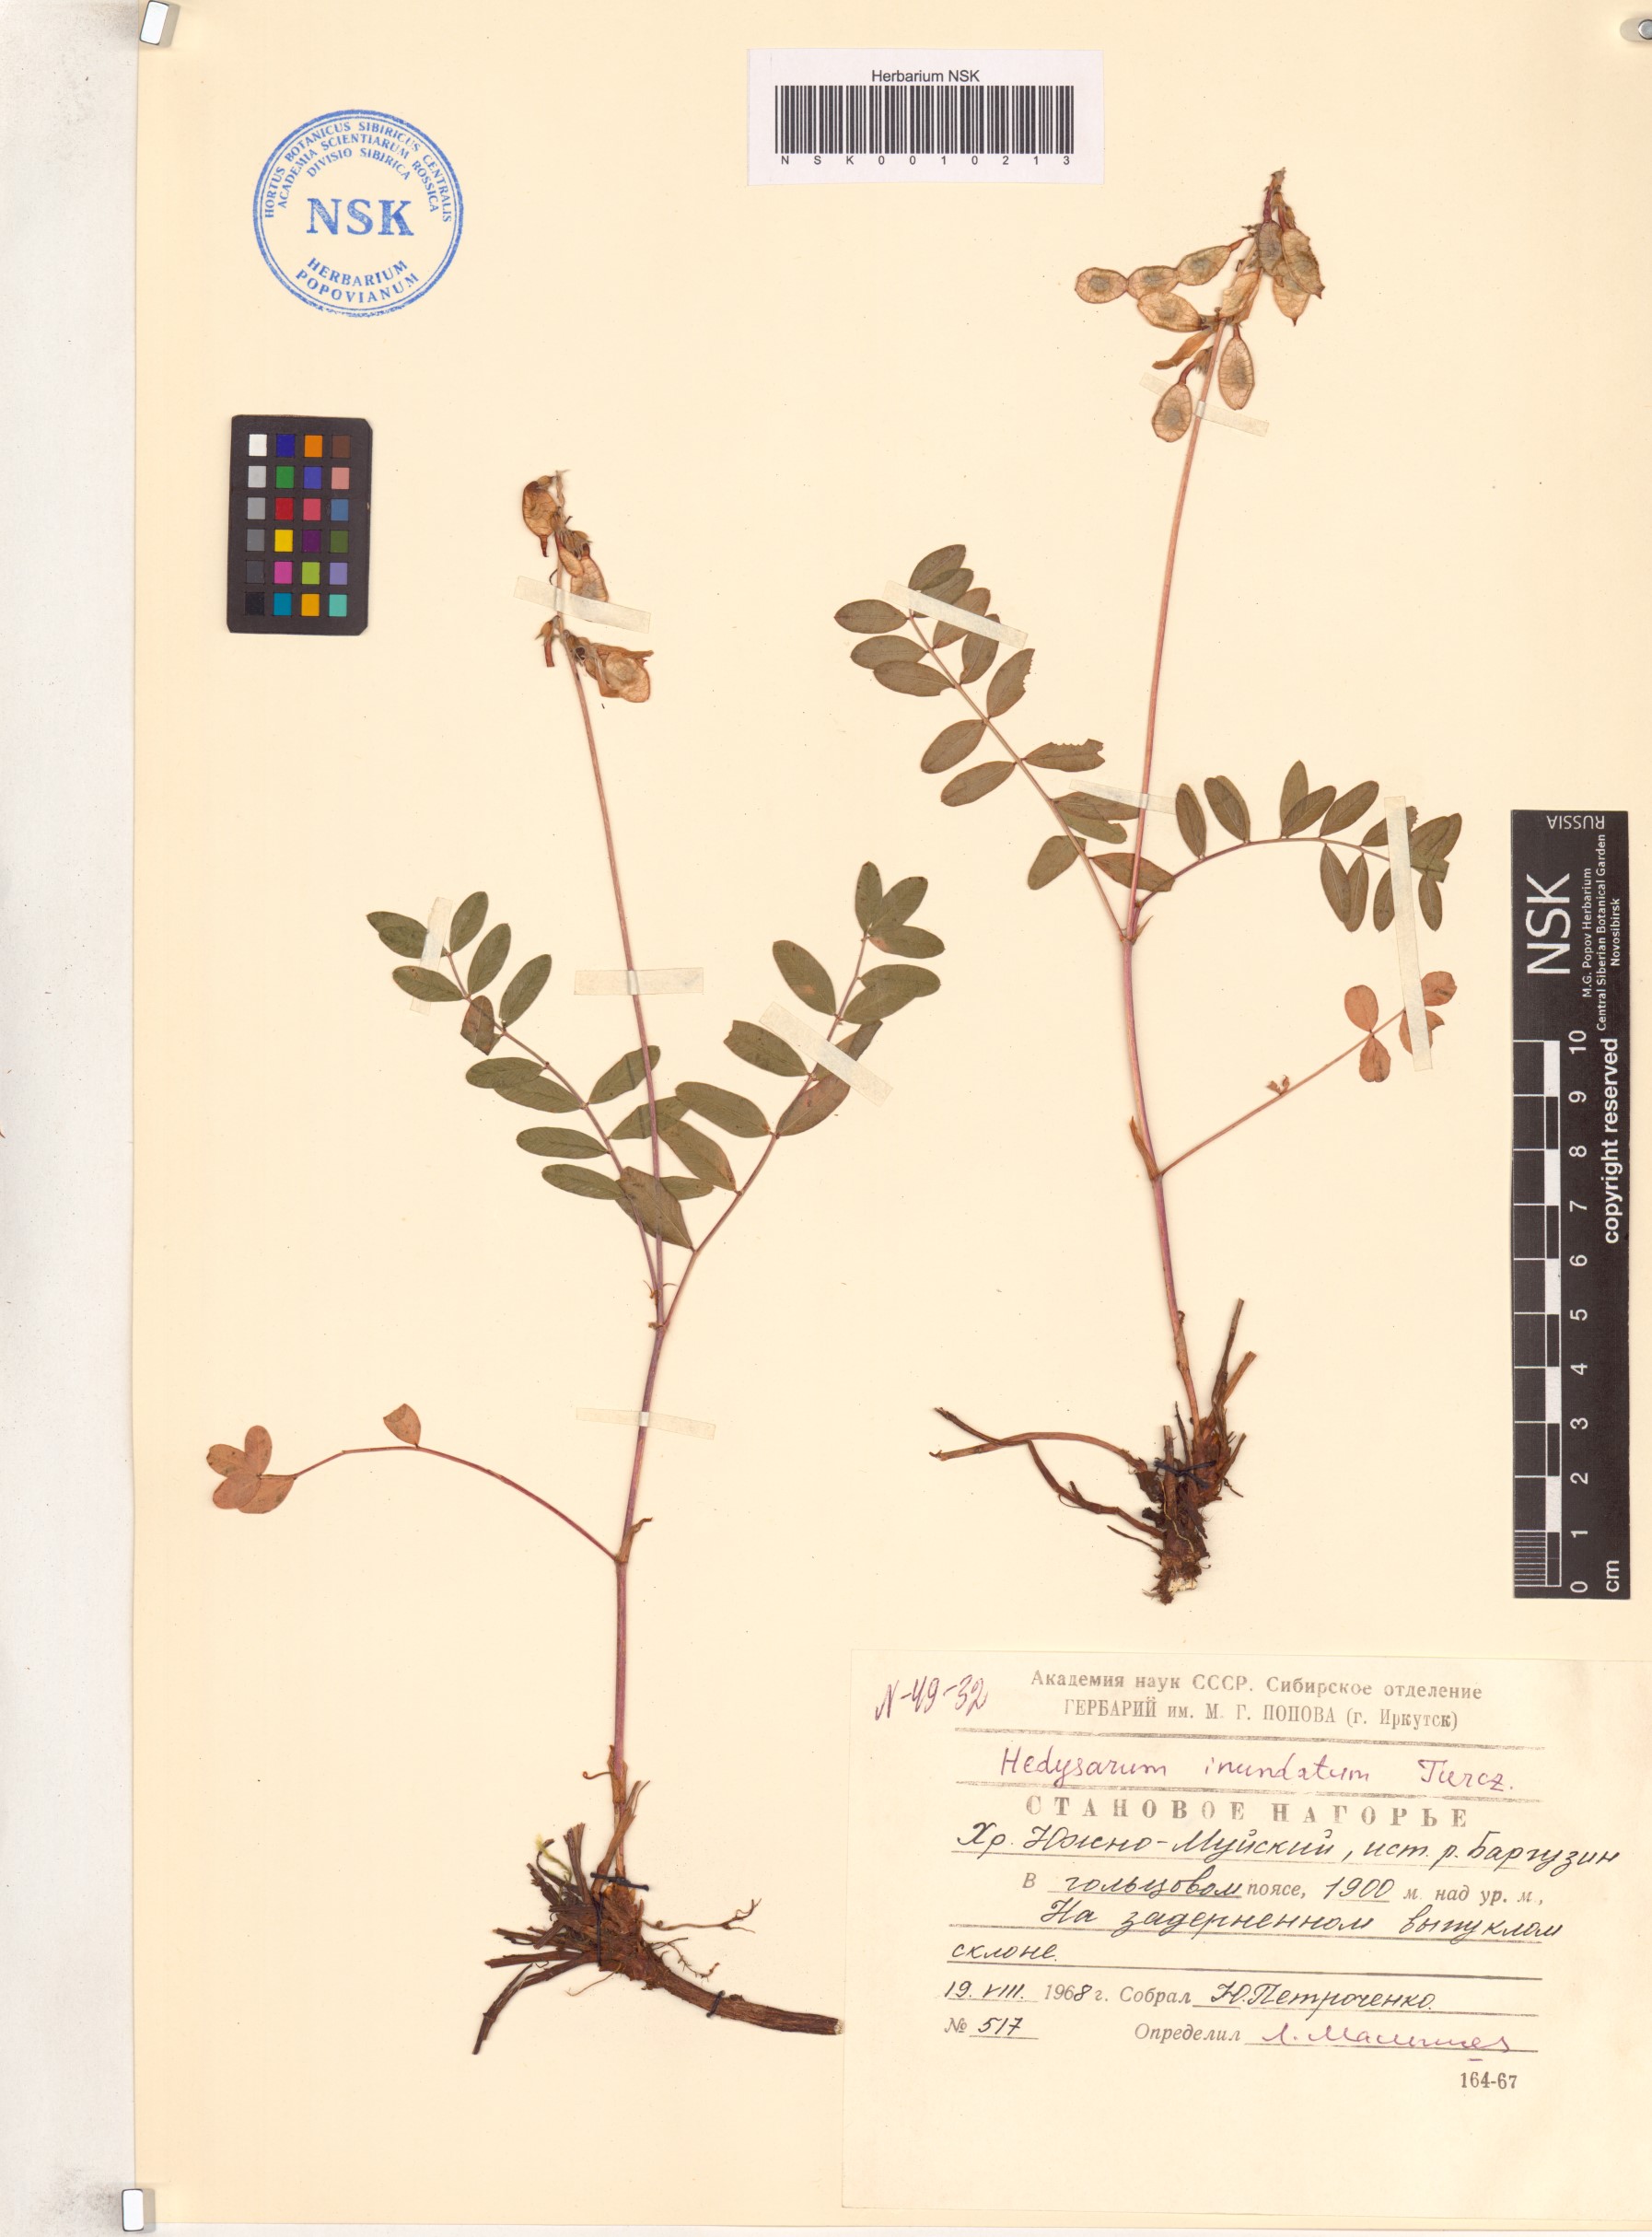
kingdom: Plantae
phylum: Tracheophyta
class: Magnoliopsida
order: Fabales
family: Fabaceae
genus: Hedysarum
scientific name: Hedysarum inundatum
